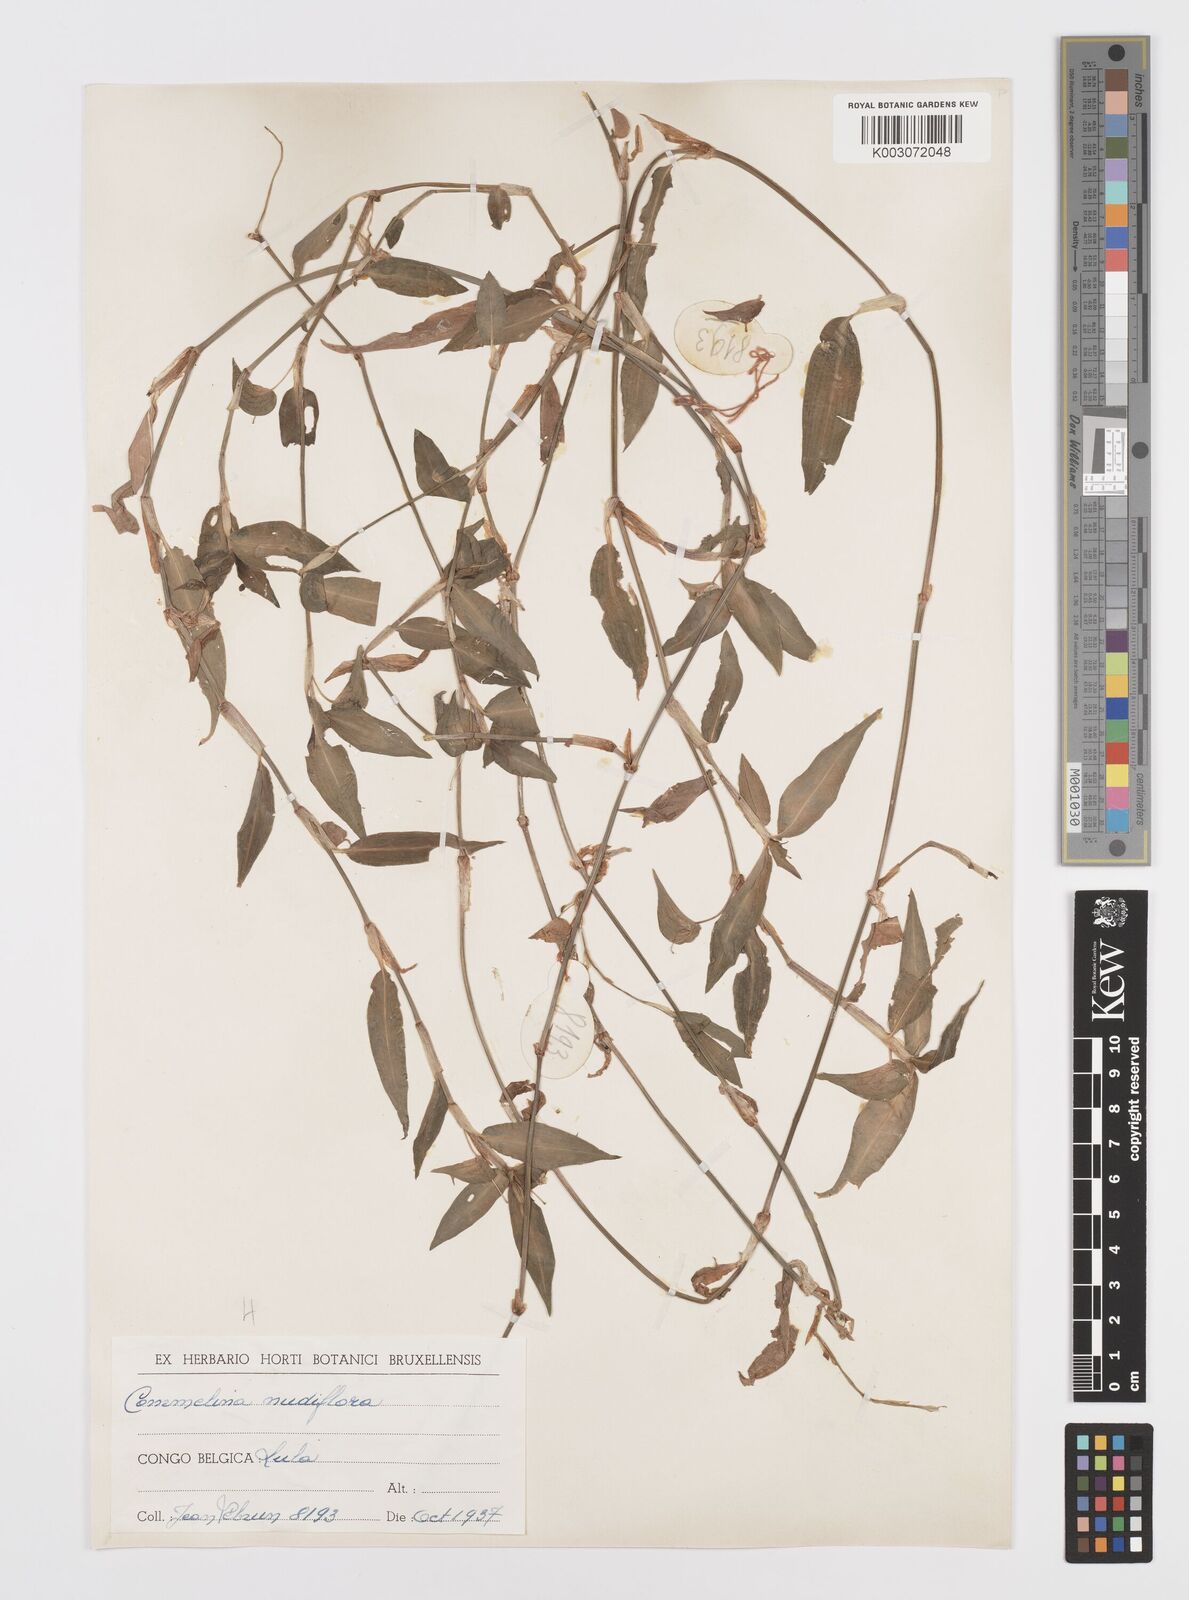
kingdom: Plantae
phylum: Tracheophyta
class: Liliopsida
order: Commelinales
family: Commelinaceae
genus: Commelina
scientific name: Commelina diffusa
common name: Climbing dayflower
